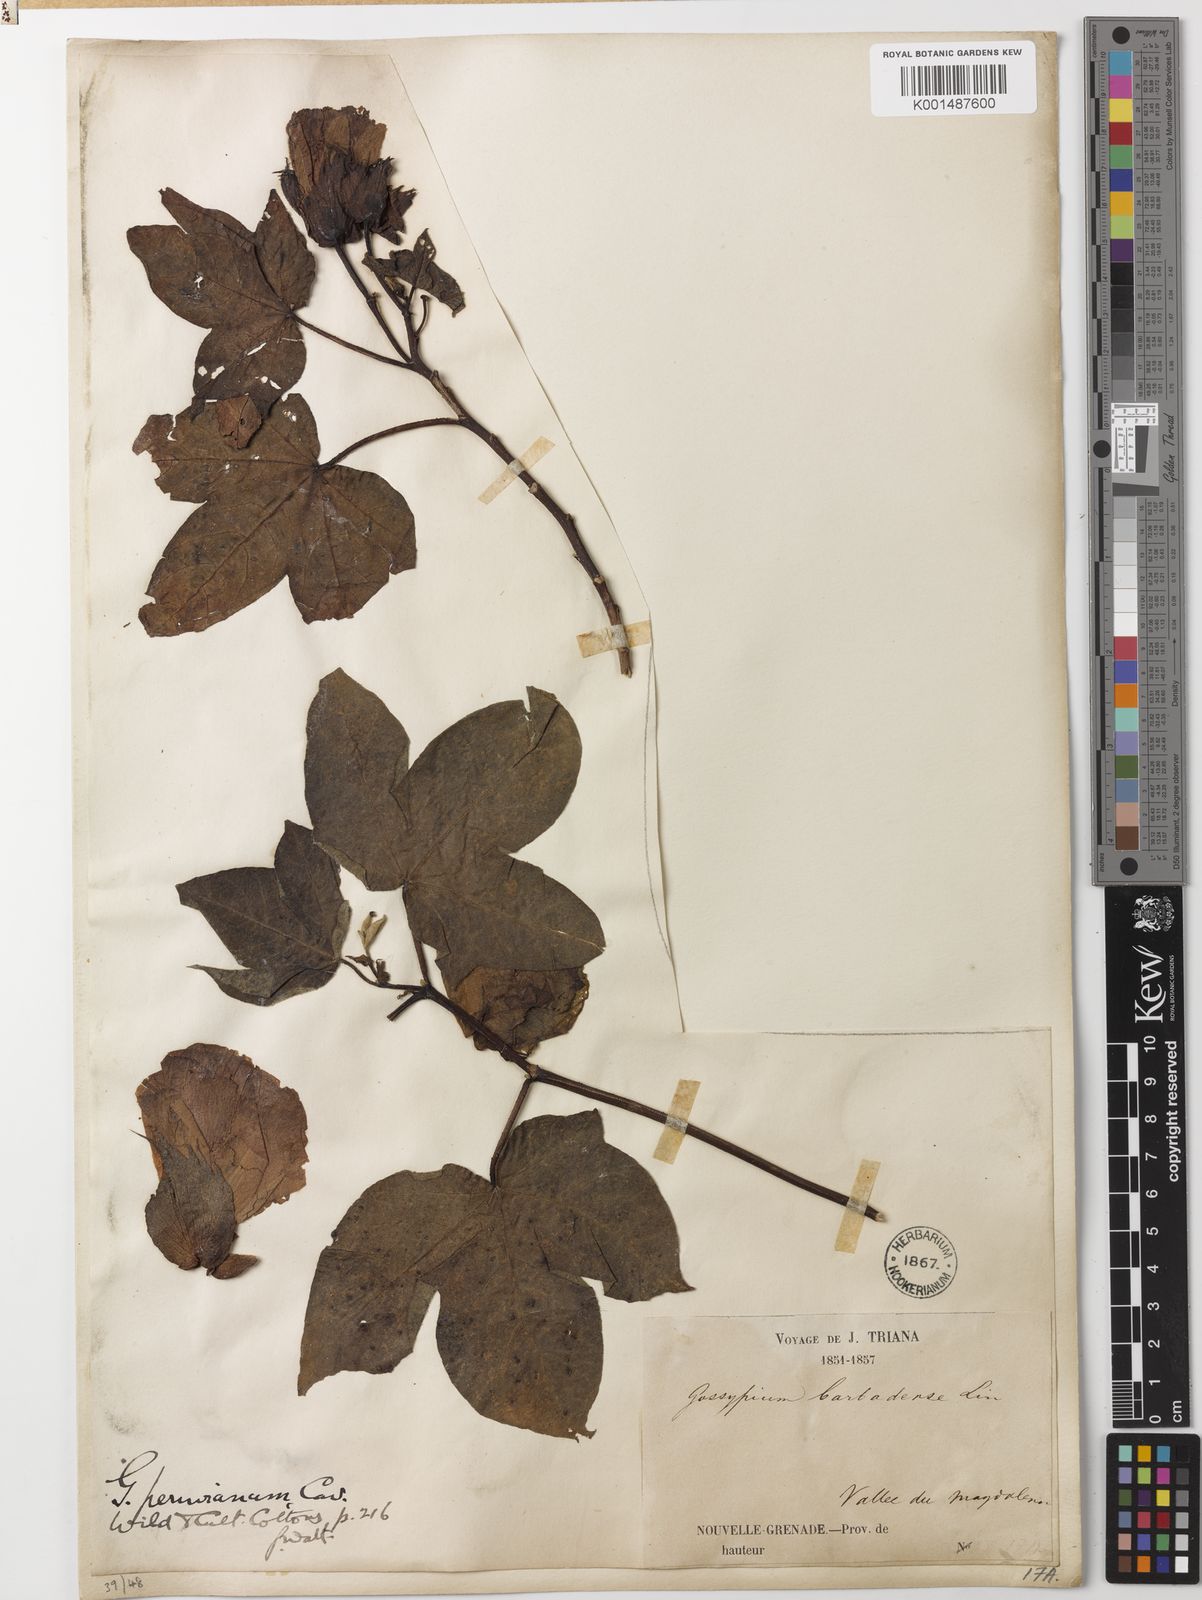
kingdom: Plantae
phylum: Tracheophyta
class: Magnoliopsida
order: Malvales
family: Malvaceae
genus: Gossypium
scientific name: Gossypium barbadense
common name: Creole cotton
